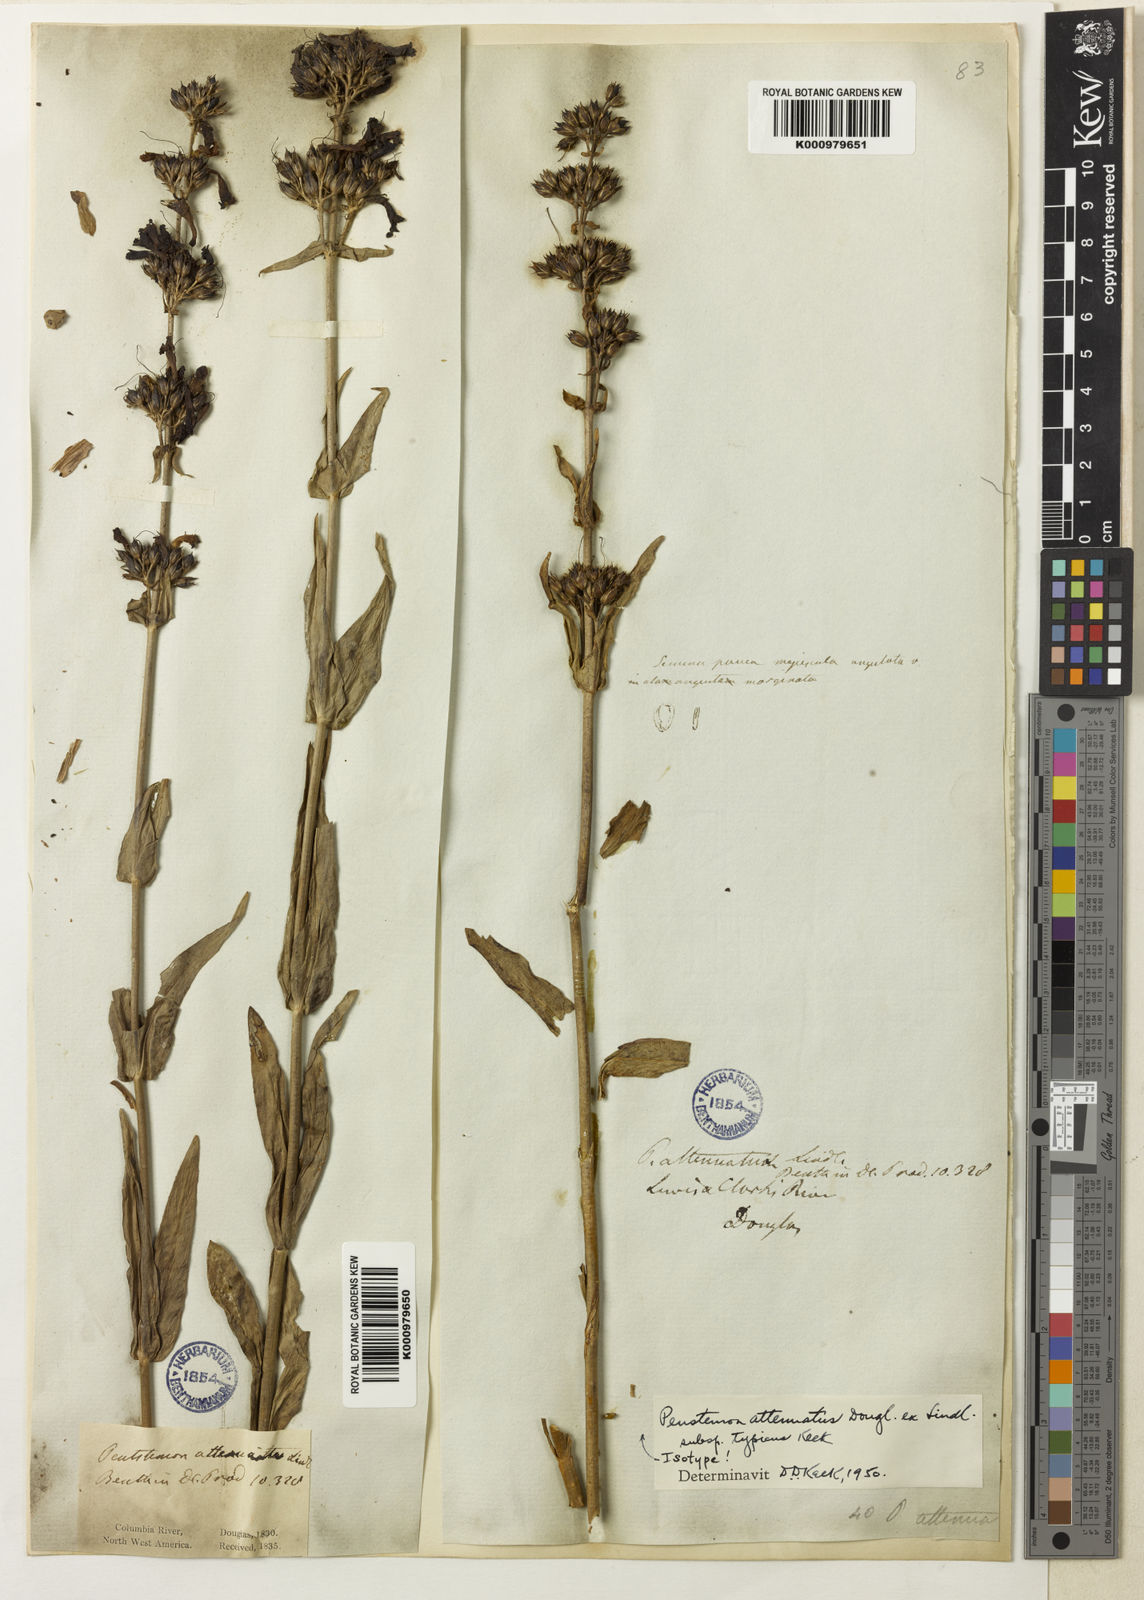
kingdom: Plantae
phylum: Tracheophyta
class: Magnoliopsida
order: Lamiales
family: Plantaginaceae
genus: Penstemon
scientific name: Penstemon
